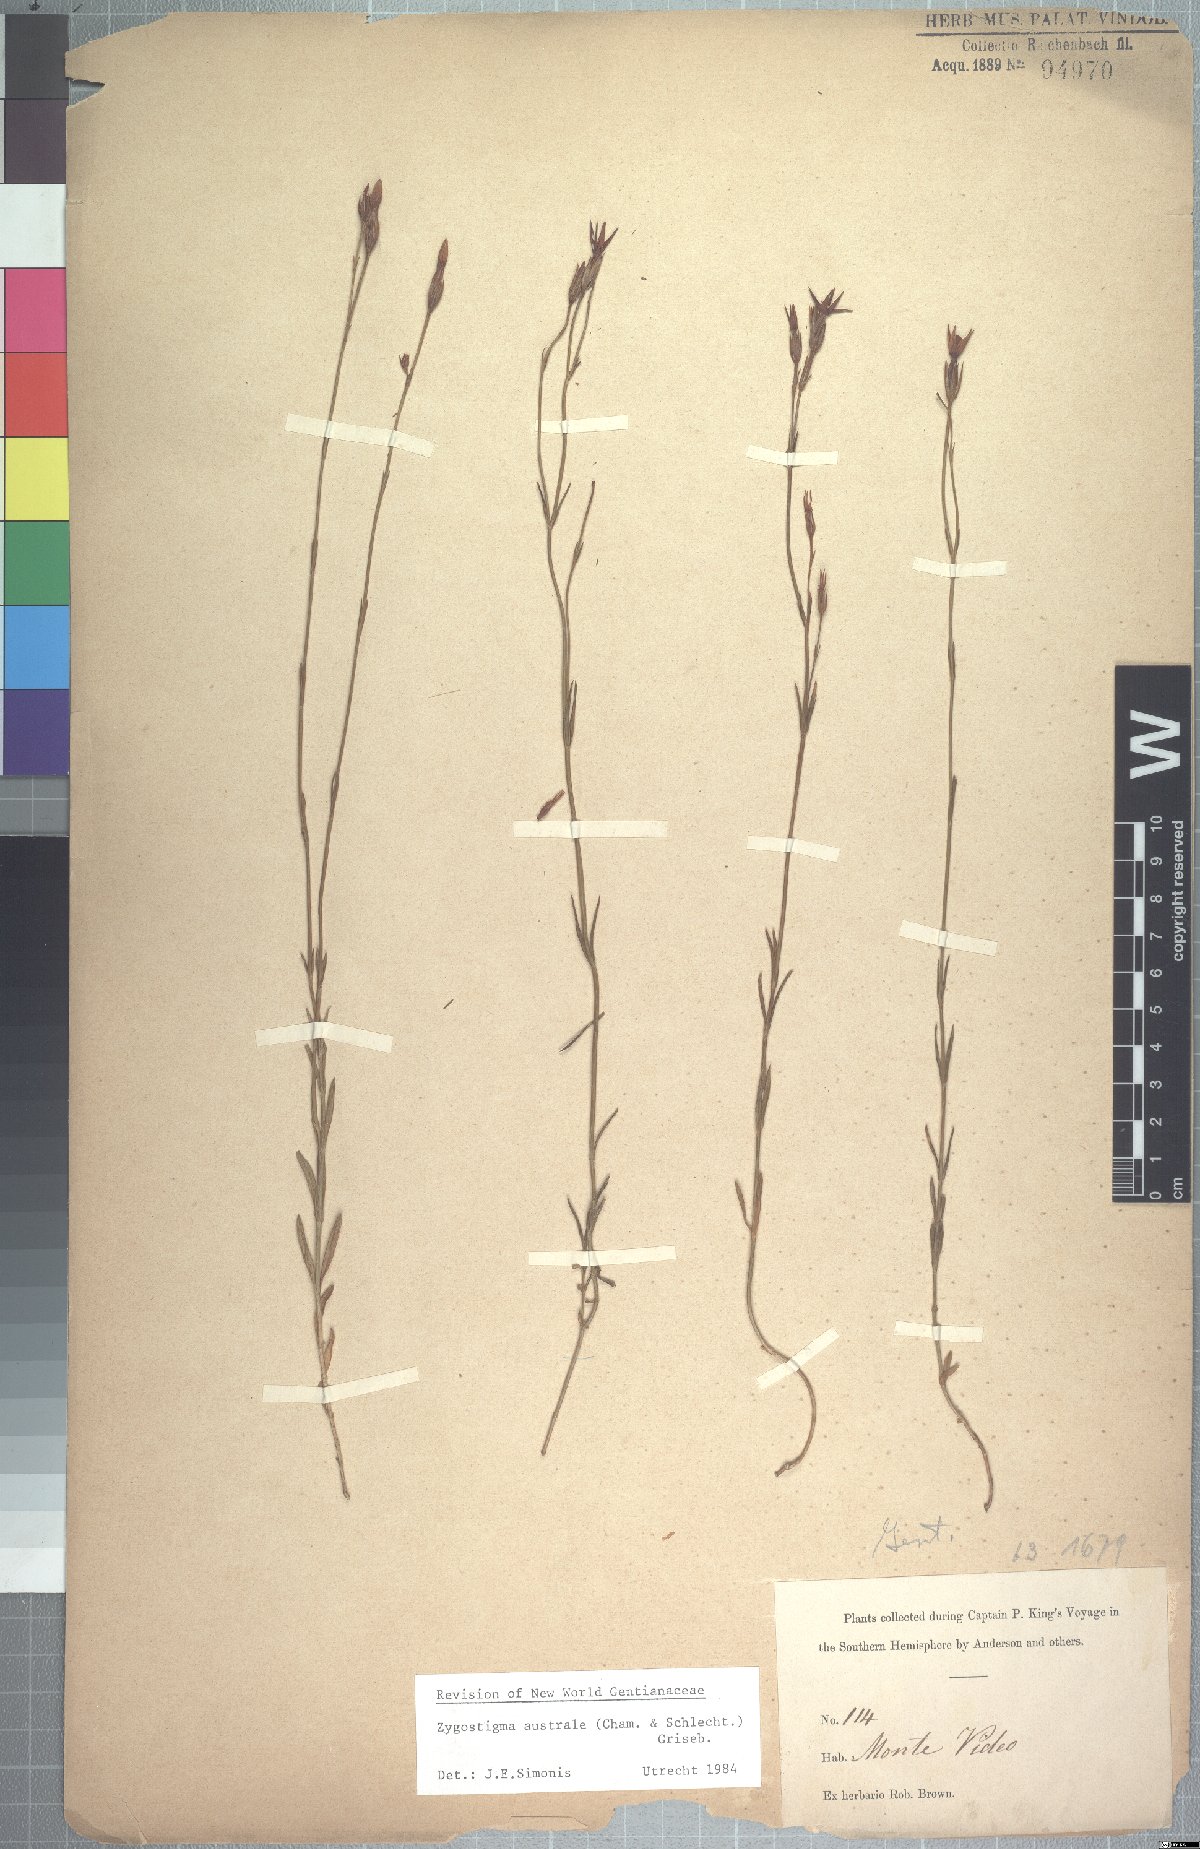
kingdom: Plantae
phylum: Tracheophyta
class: Magnoliopsida
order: Gentianales
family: Gentianaceae
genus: Zygostigma
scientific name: Zygostigma australe
